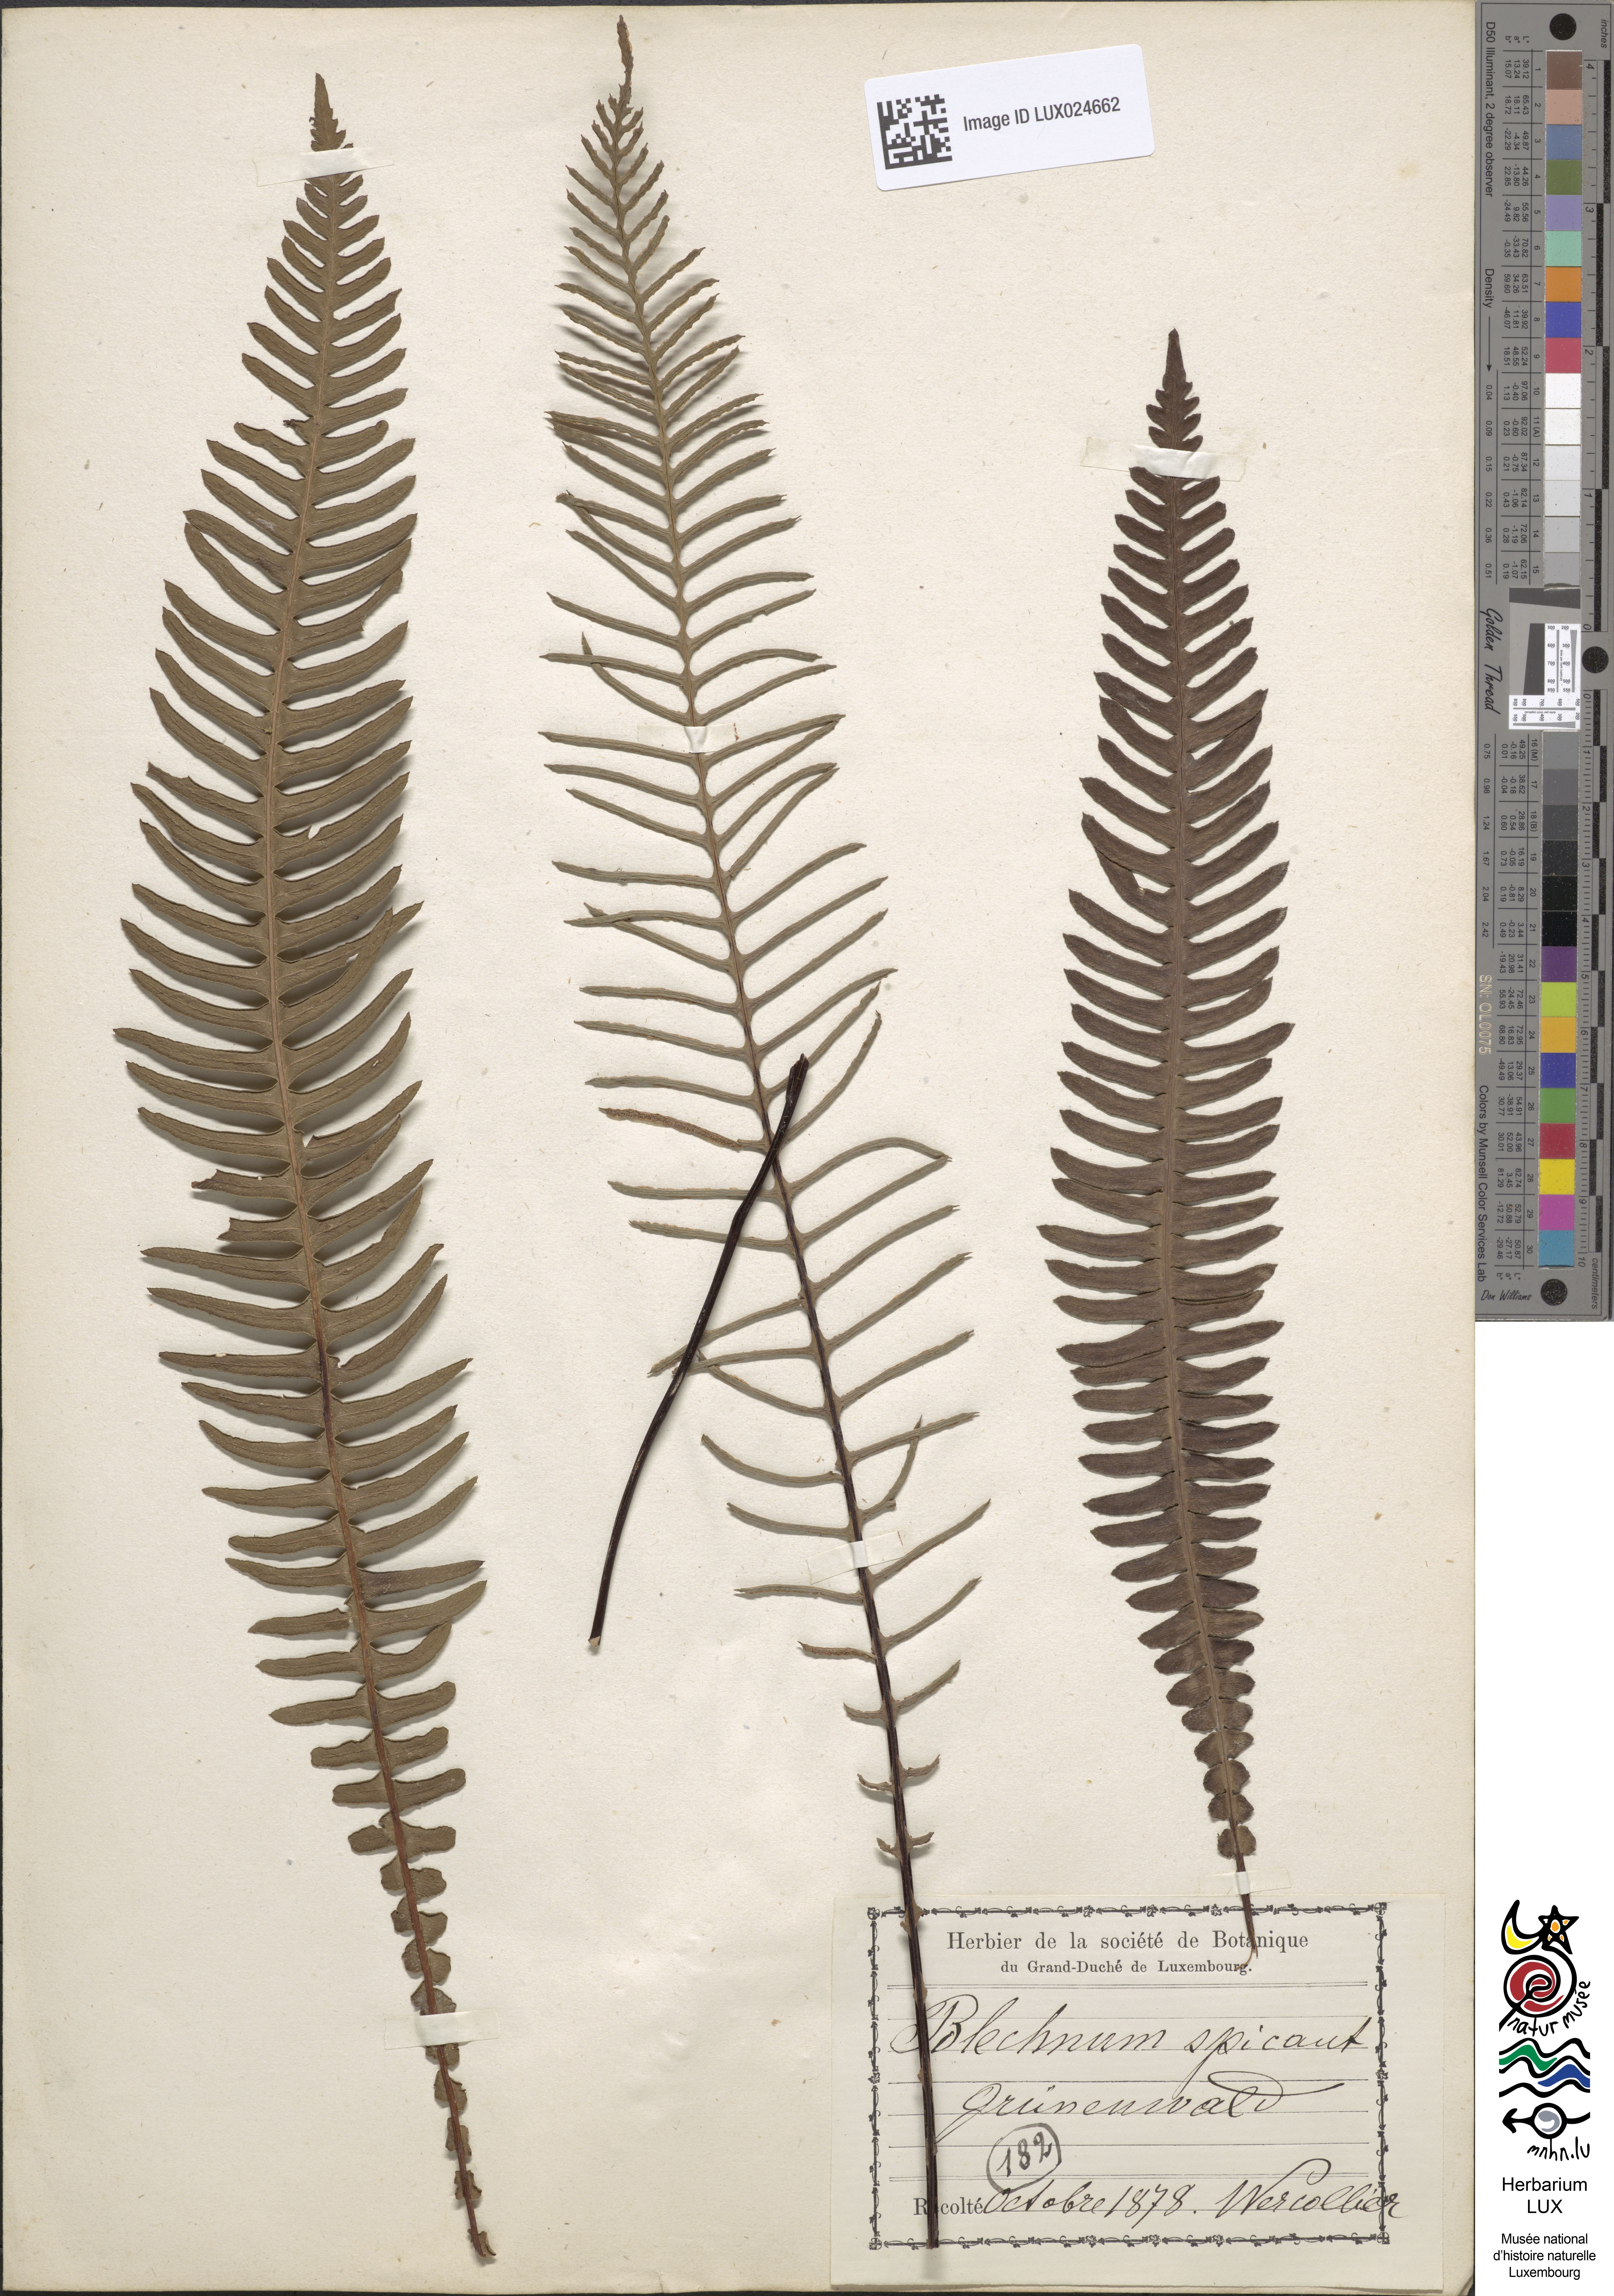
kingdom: Plantae
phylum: Tracheophyta
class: Polypodiopsida
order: Polypodiales
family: Blechnaceae
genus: Struthiopteris
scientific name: Struthiopteris spicant
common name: Deer fern
